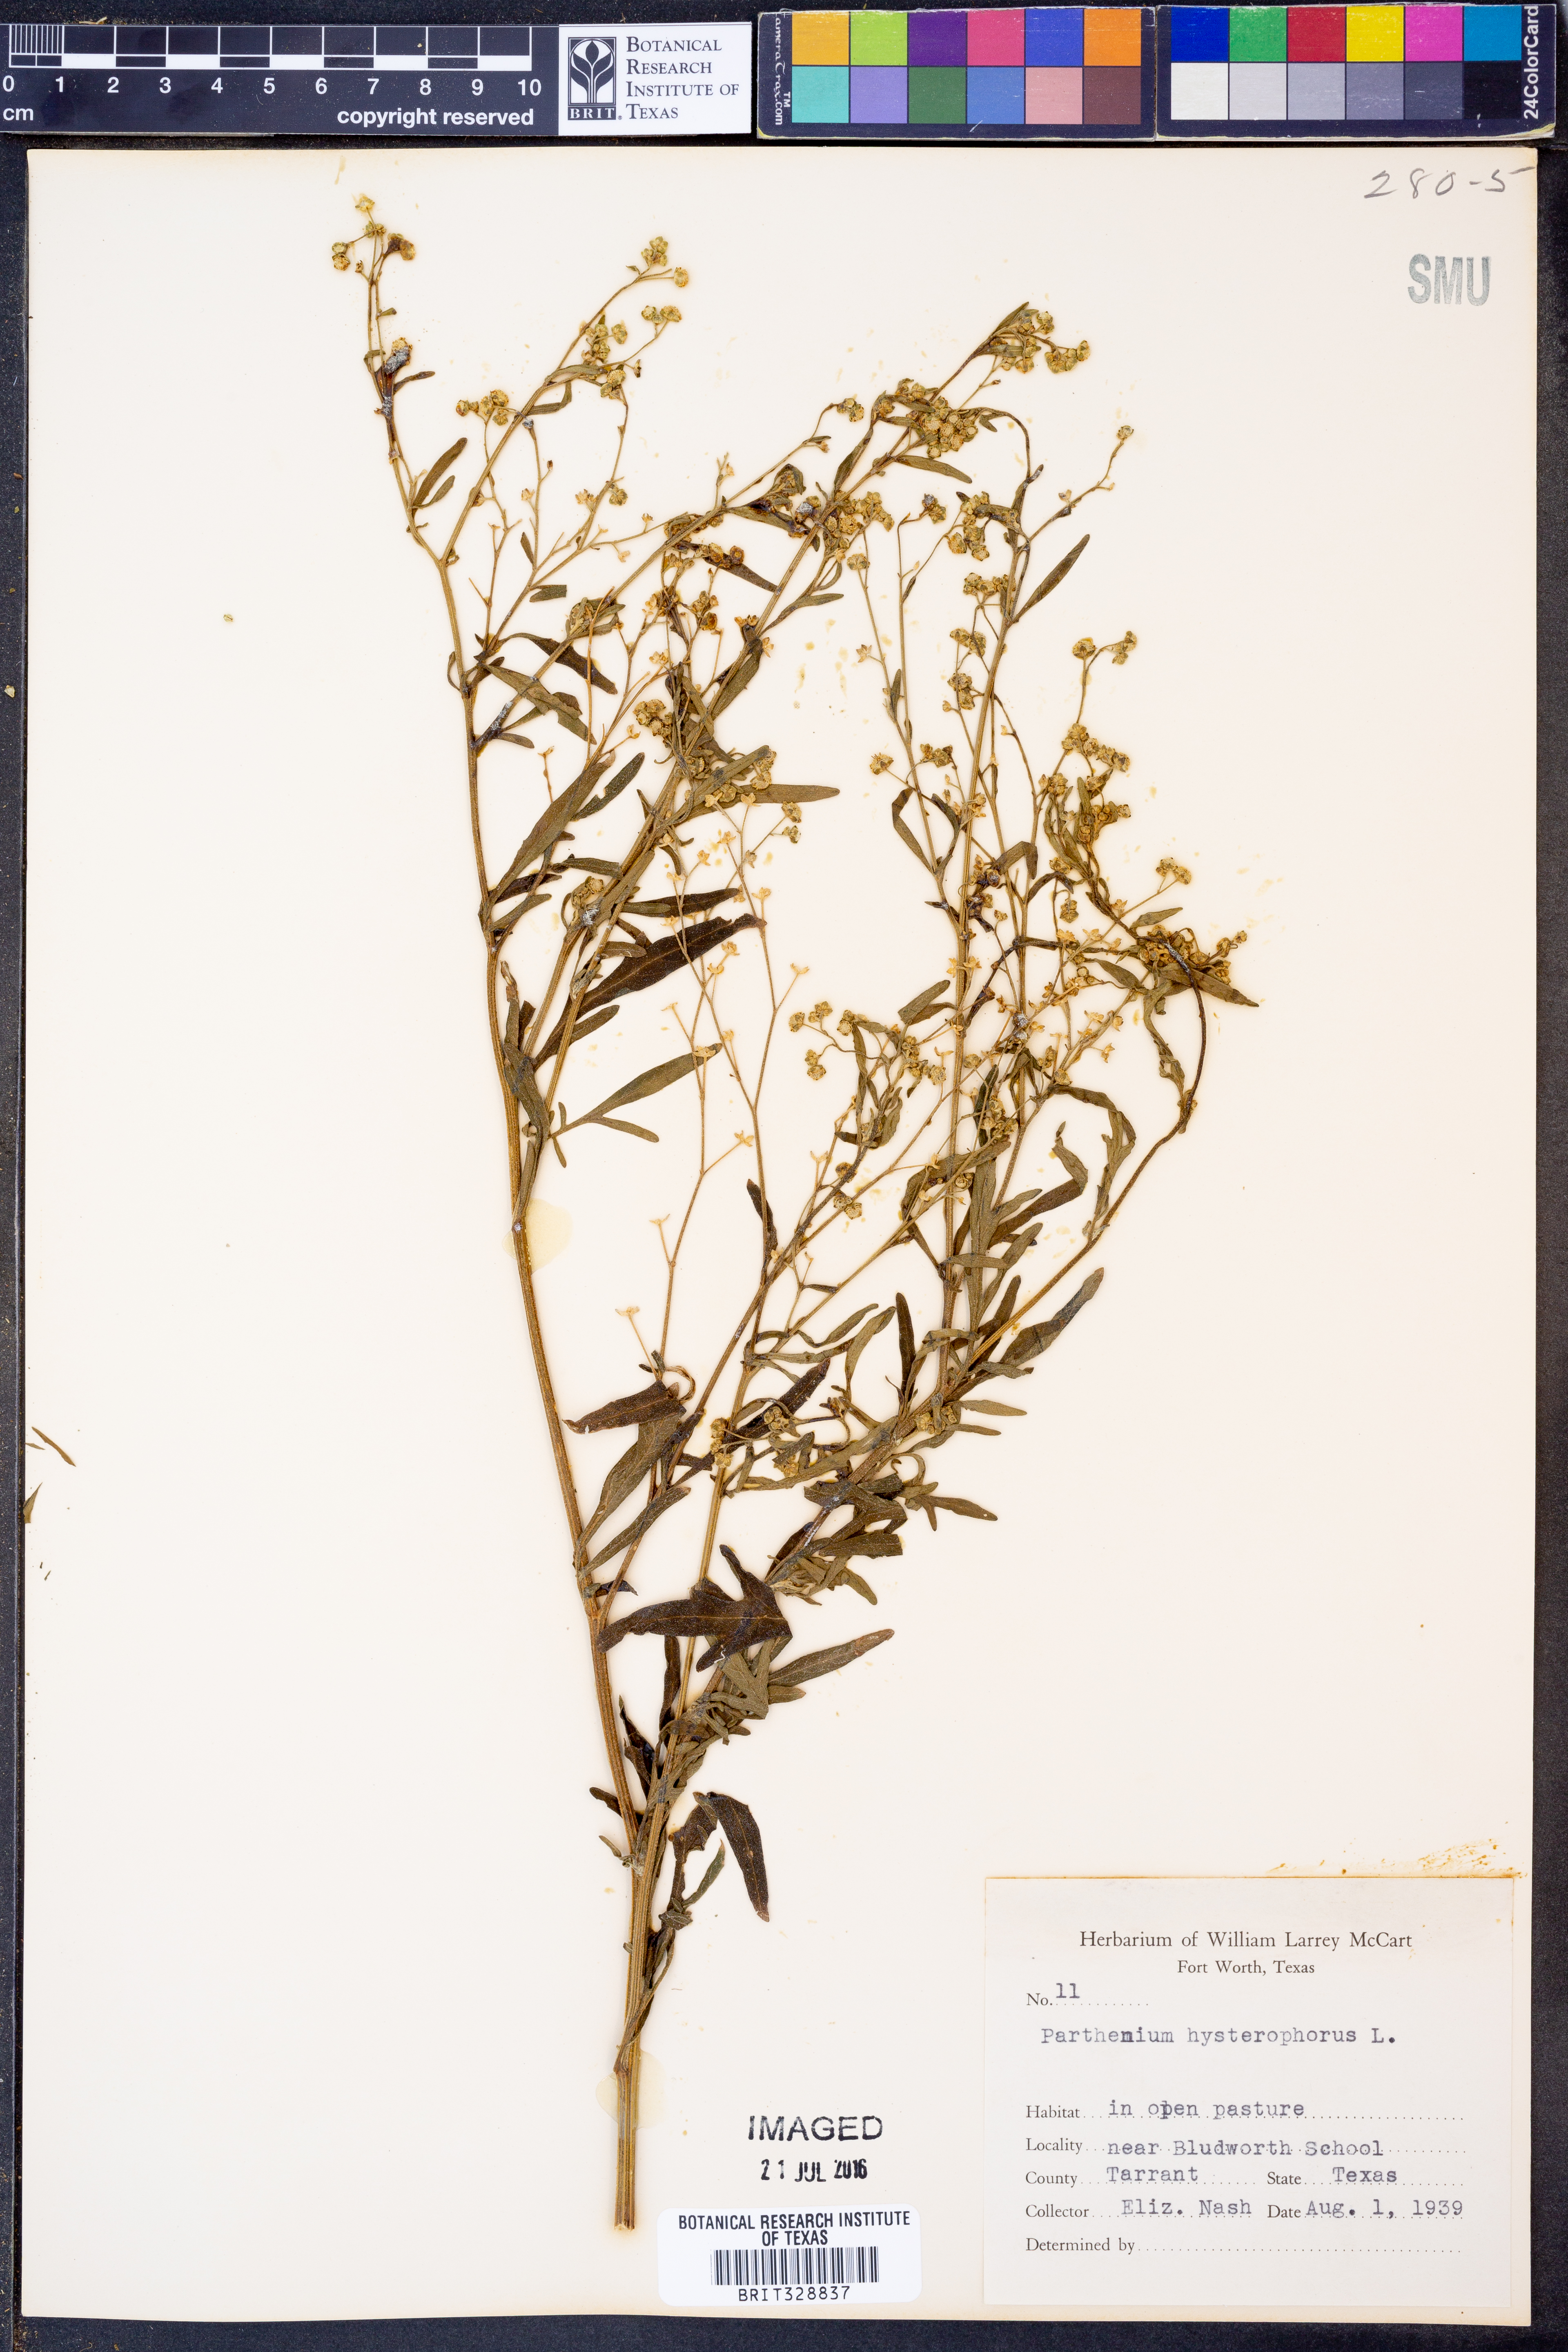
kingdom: Plantae
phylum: Tracheophyta
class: Magnoliopsida
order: Asterales
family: Asteraceae
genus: Parthenium
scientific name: Parthenium hysterophorus
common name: Santa maria feverfew
